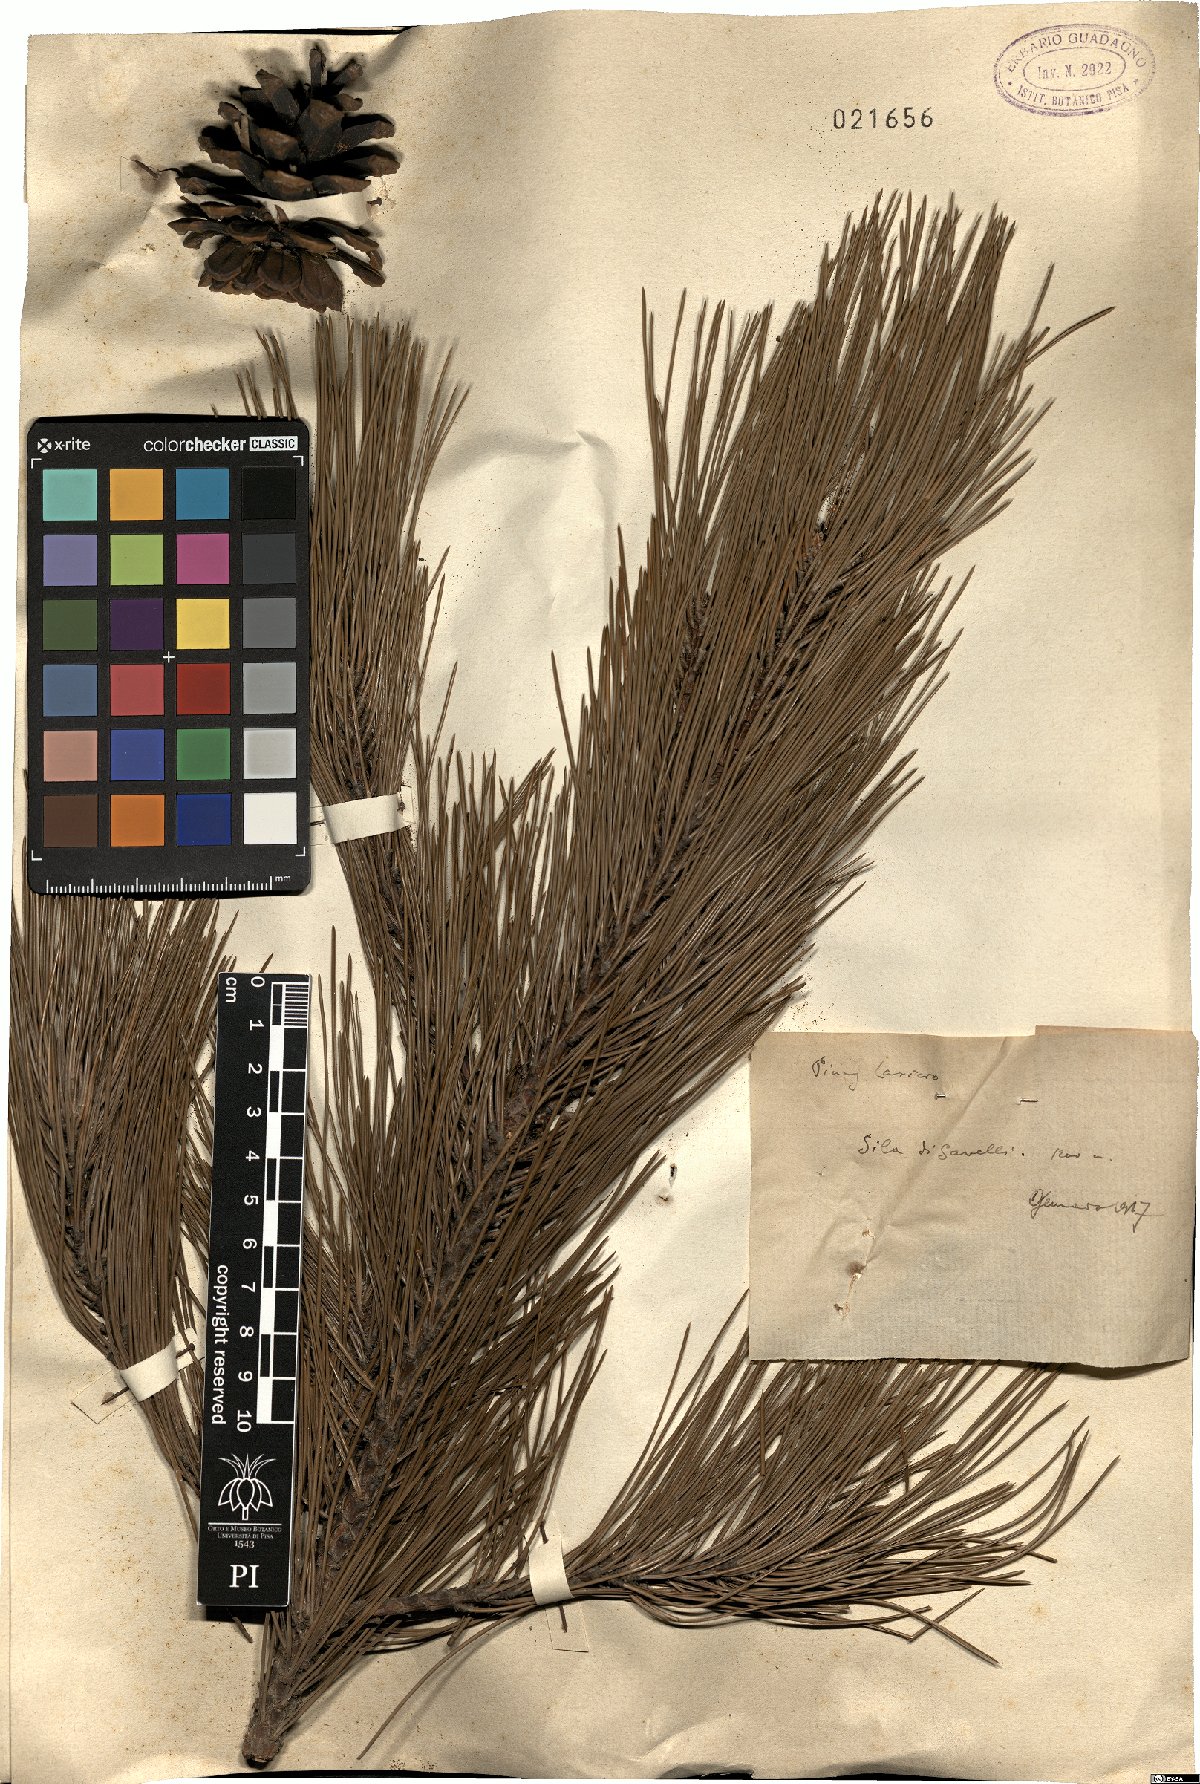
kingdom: Plantae
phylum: Tracheophyta
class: Pinopsida
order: Pinales
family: Pinaceae
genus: Pinus
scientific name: Pinus pinaster
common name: Maritime pine
